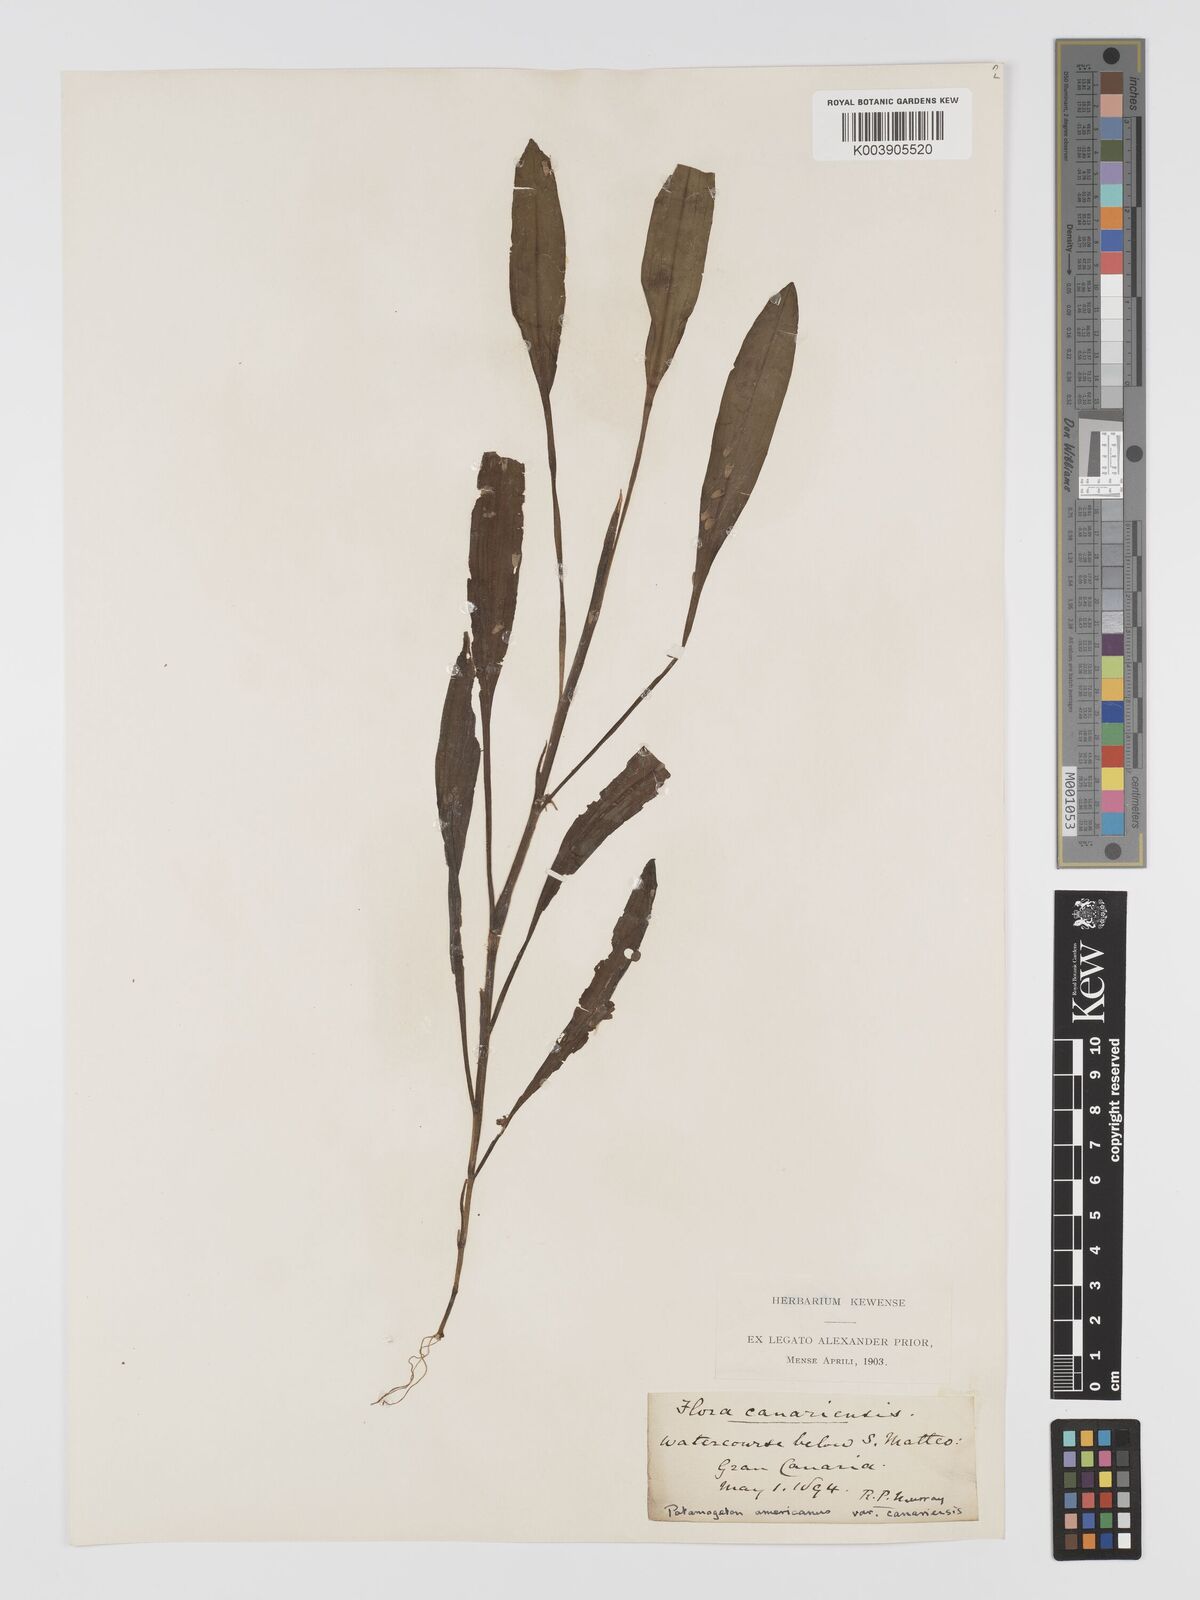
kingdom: Plantae
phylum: Tracheophyta
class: Liliopsida
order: Alismatales
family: Potamogetonaceae
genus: Potamogeton
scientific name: Potamogeton nodosus
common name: Loddon pondweed
